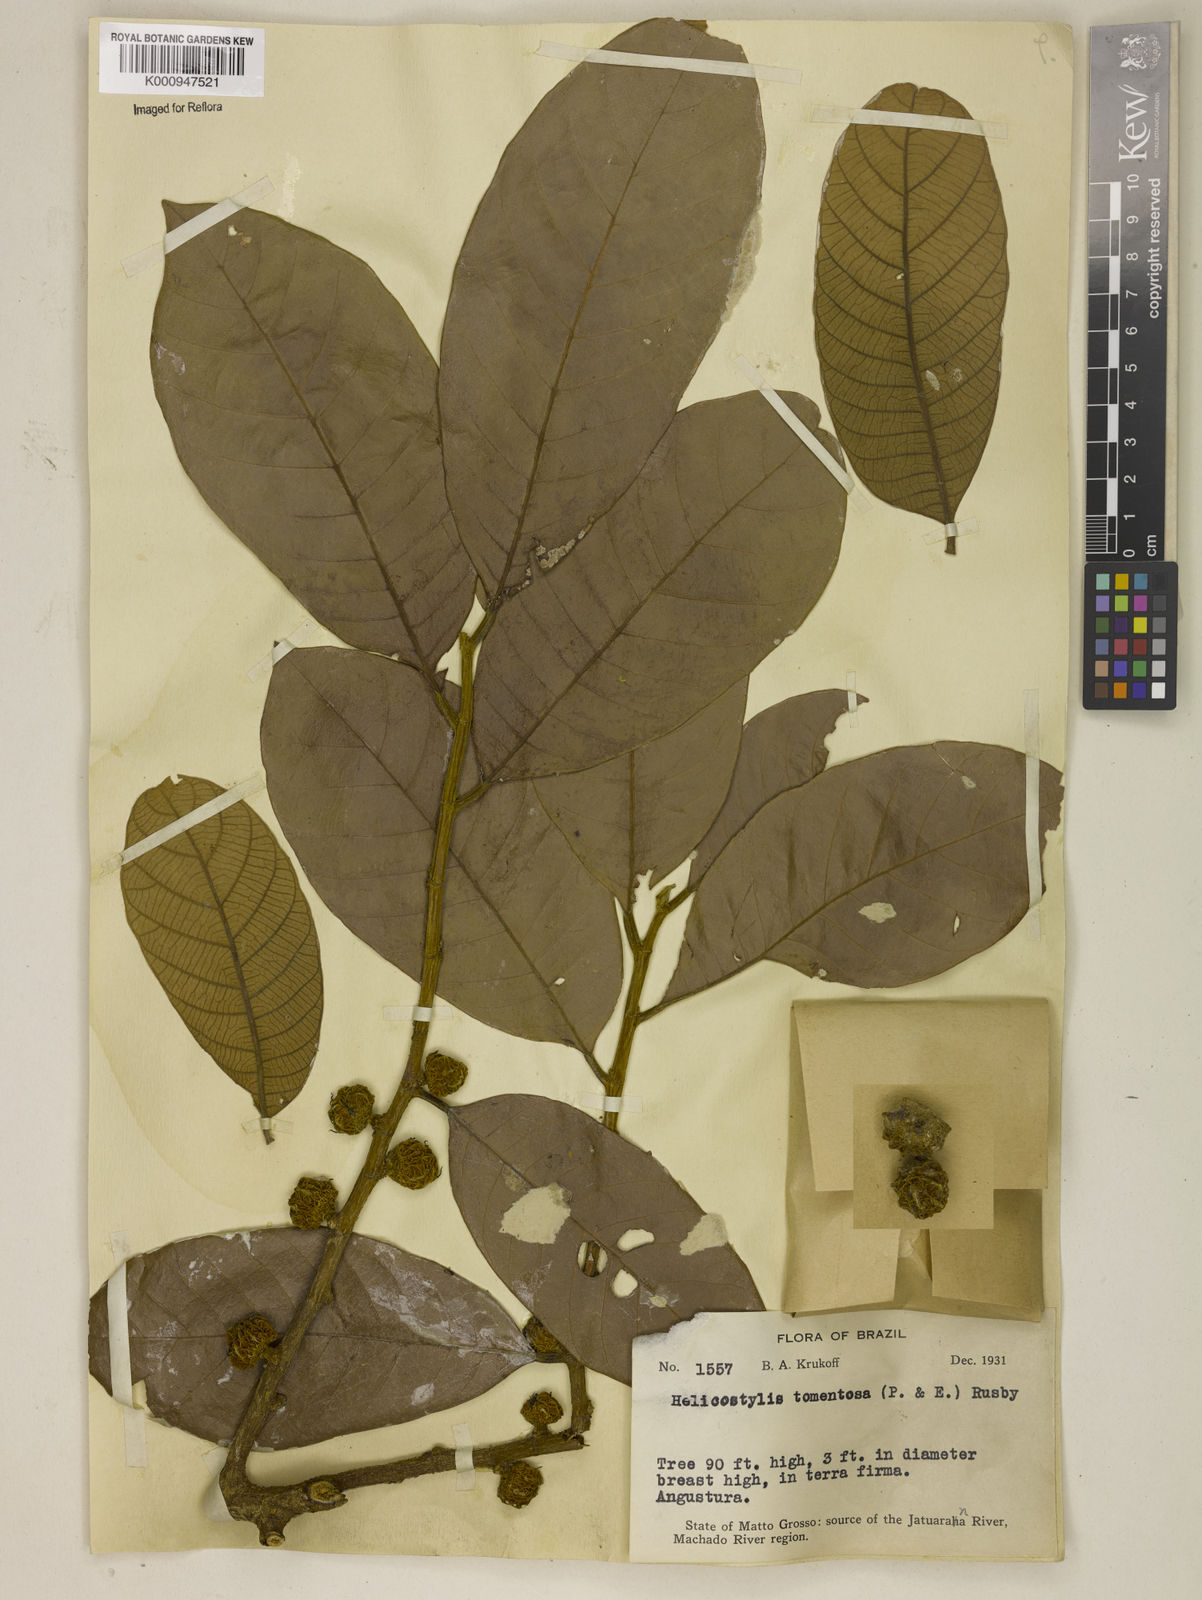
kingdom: Plantae
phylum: Tracheophyta
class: Magnoliopsida
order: Rosales
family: Moraceae
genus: Helicostylis
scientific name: Helicostylis
